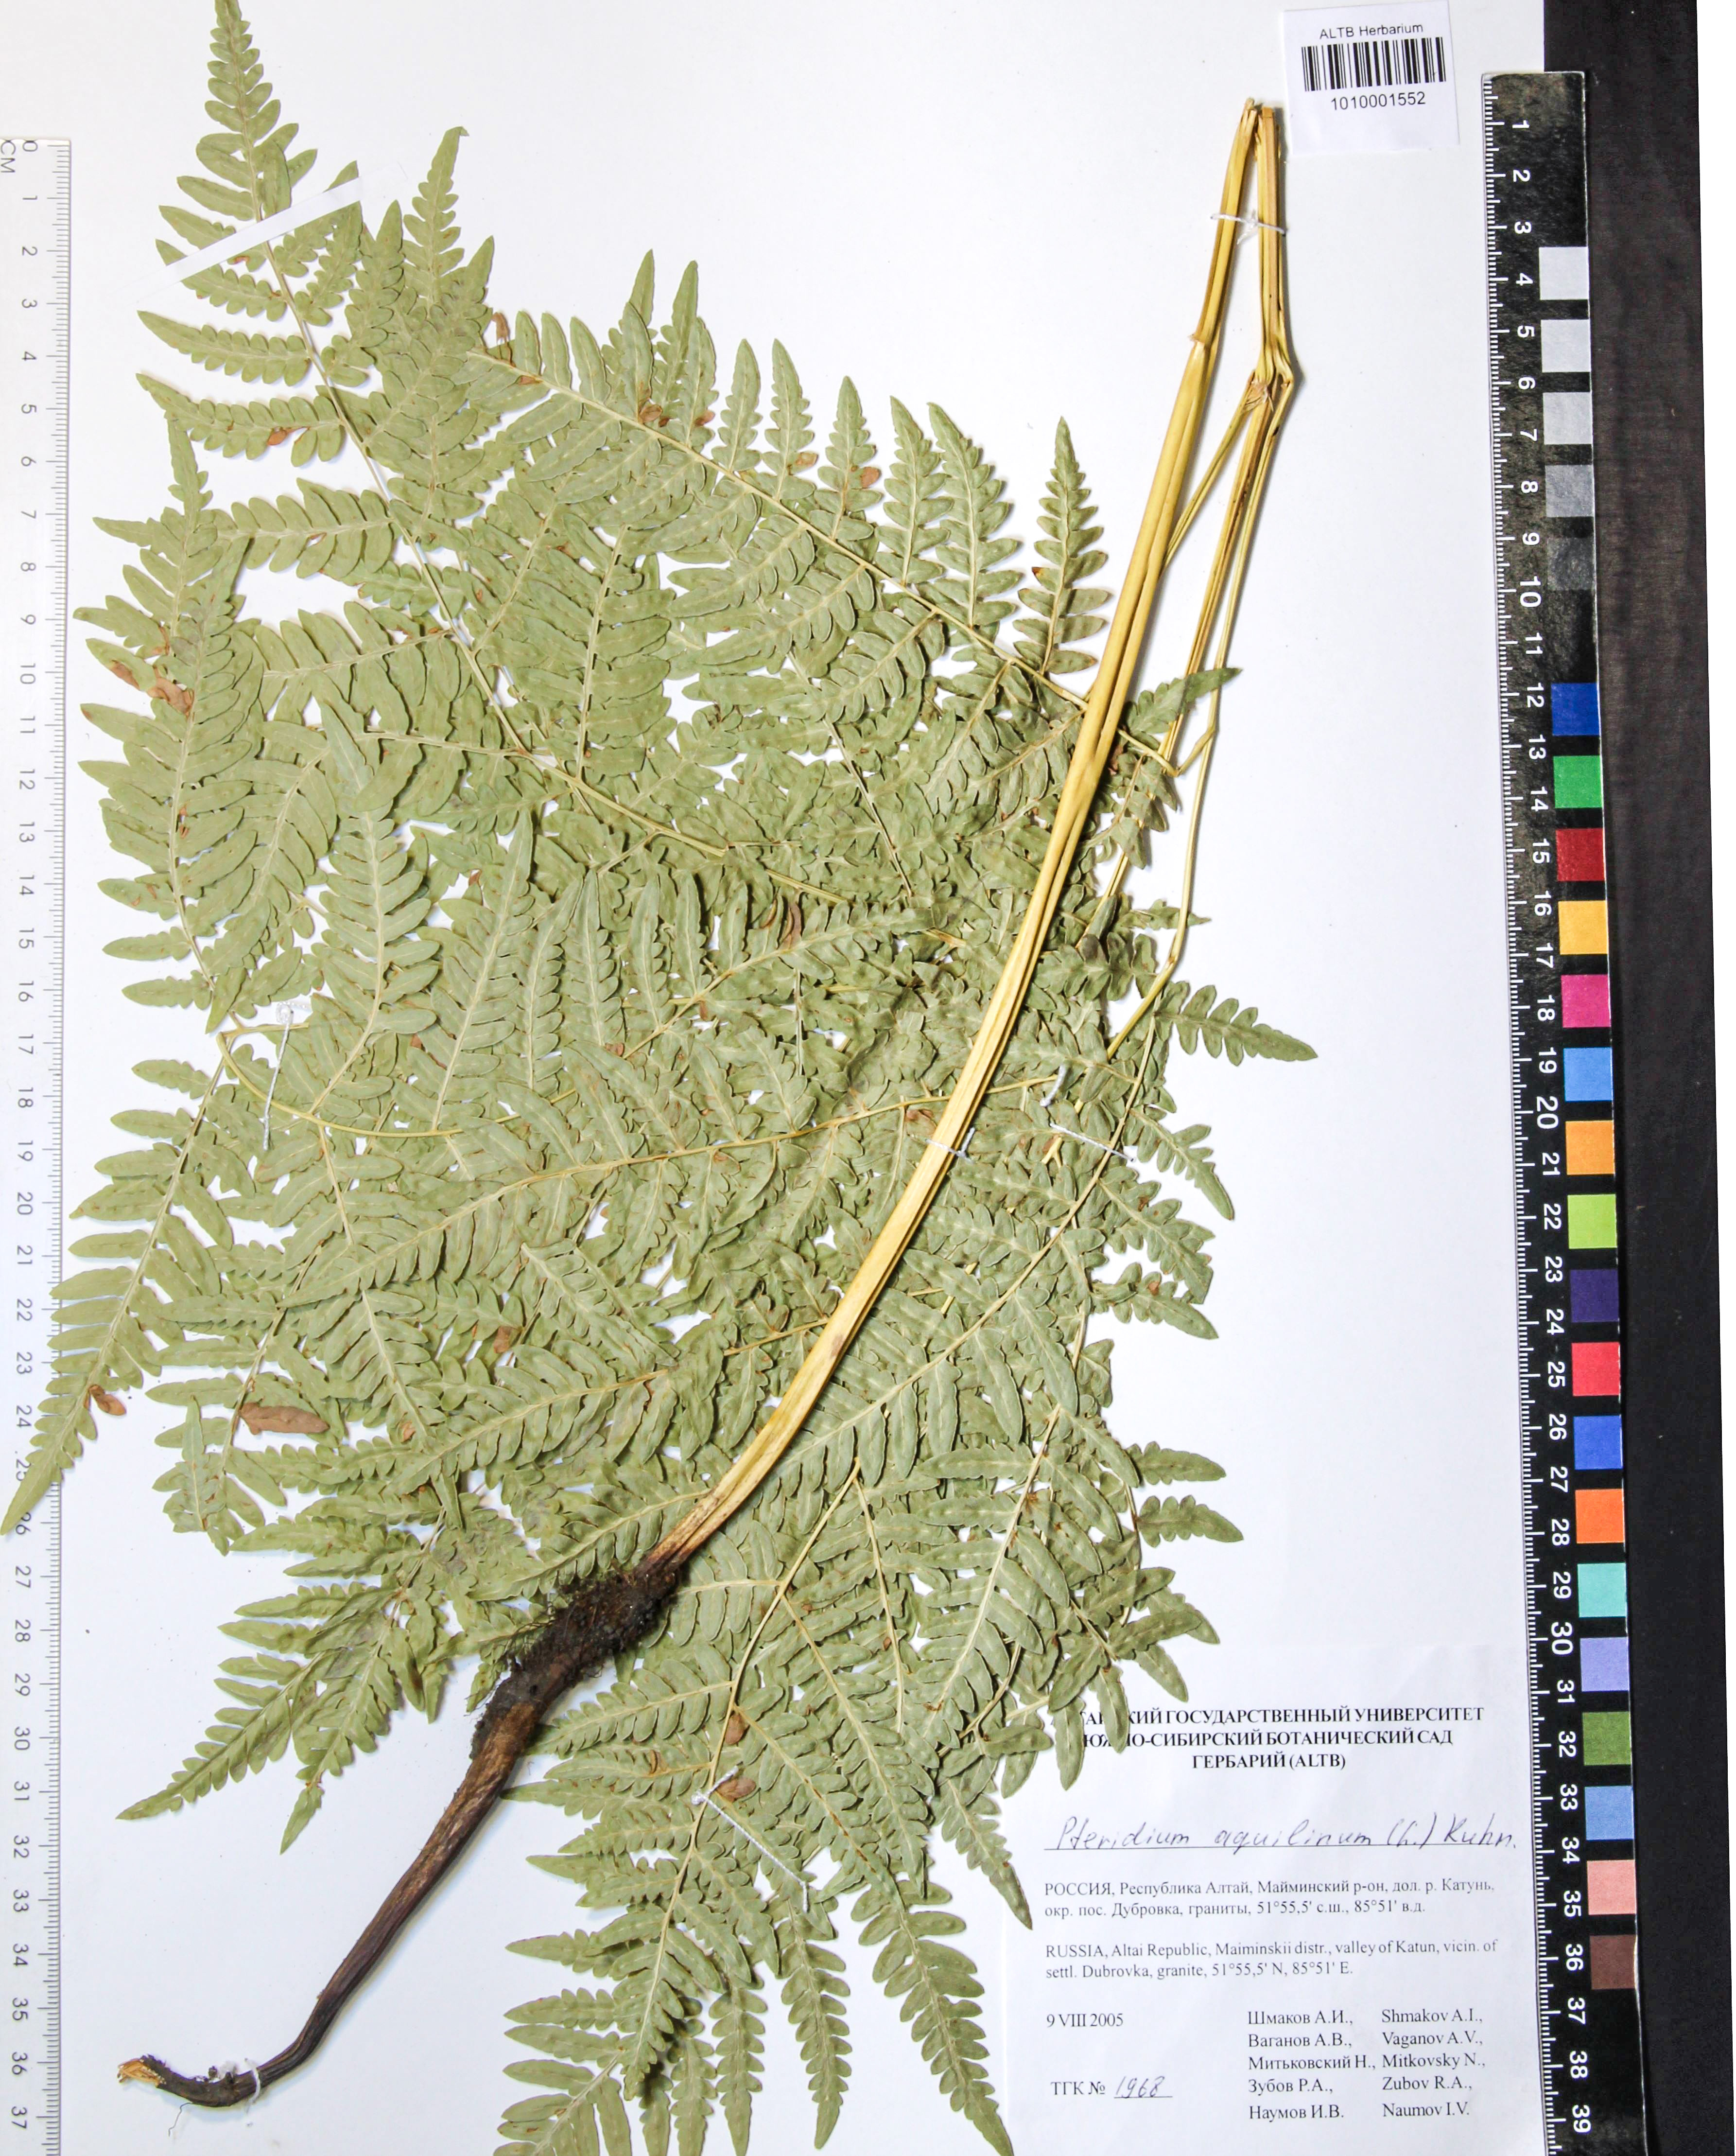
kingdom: Plantae
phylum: Tracheophyta
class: Polypodiopsida
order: Polypodiales
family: Dennstaedtiaceae
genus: Pteridium
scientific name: Pteridium aquilinum
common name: Bracken
